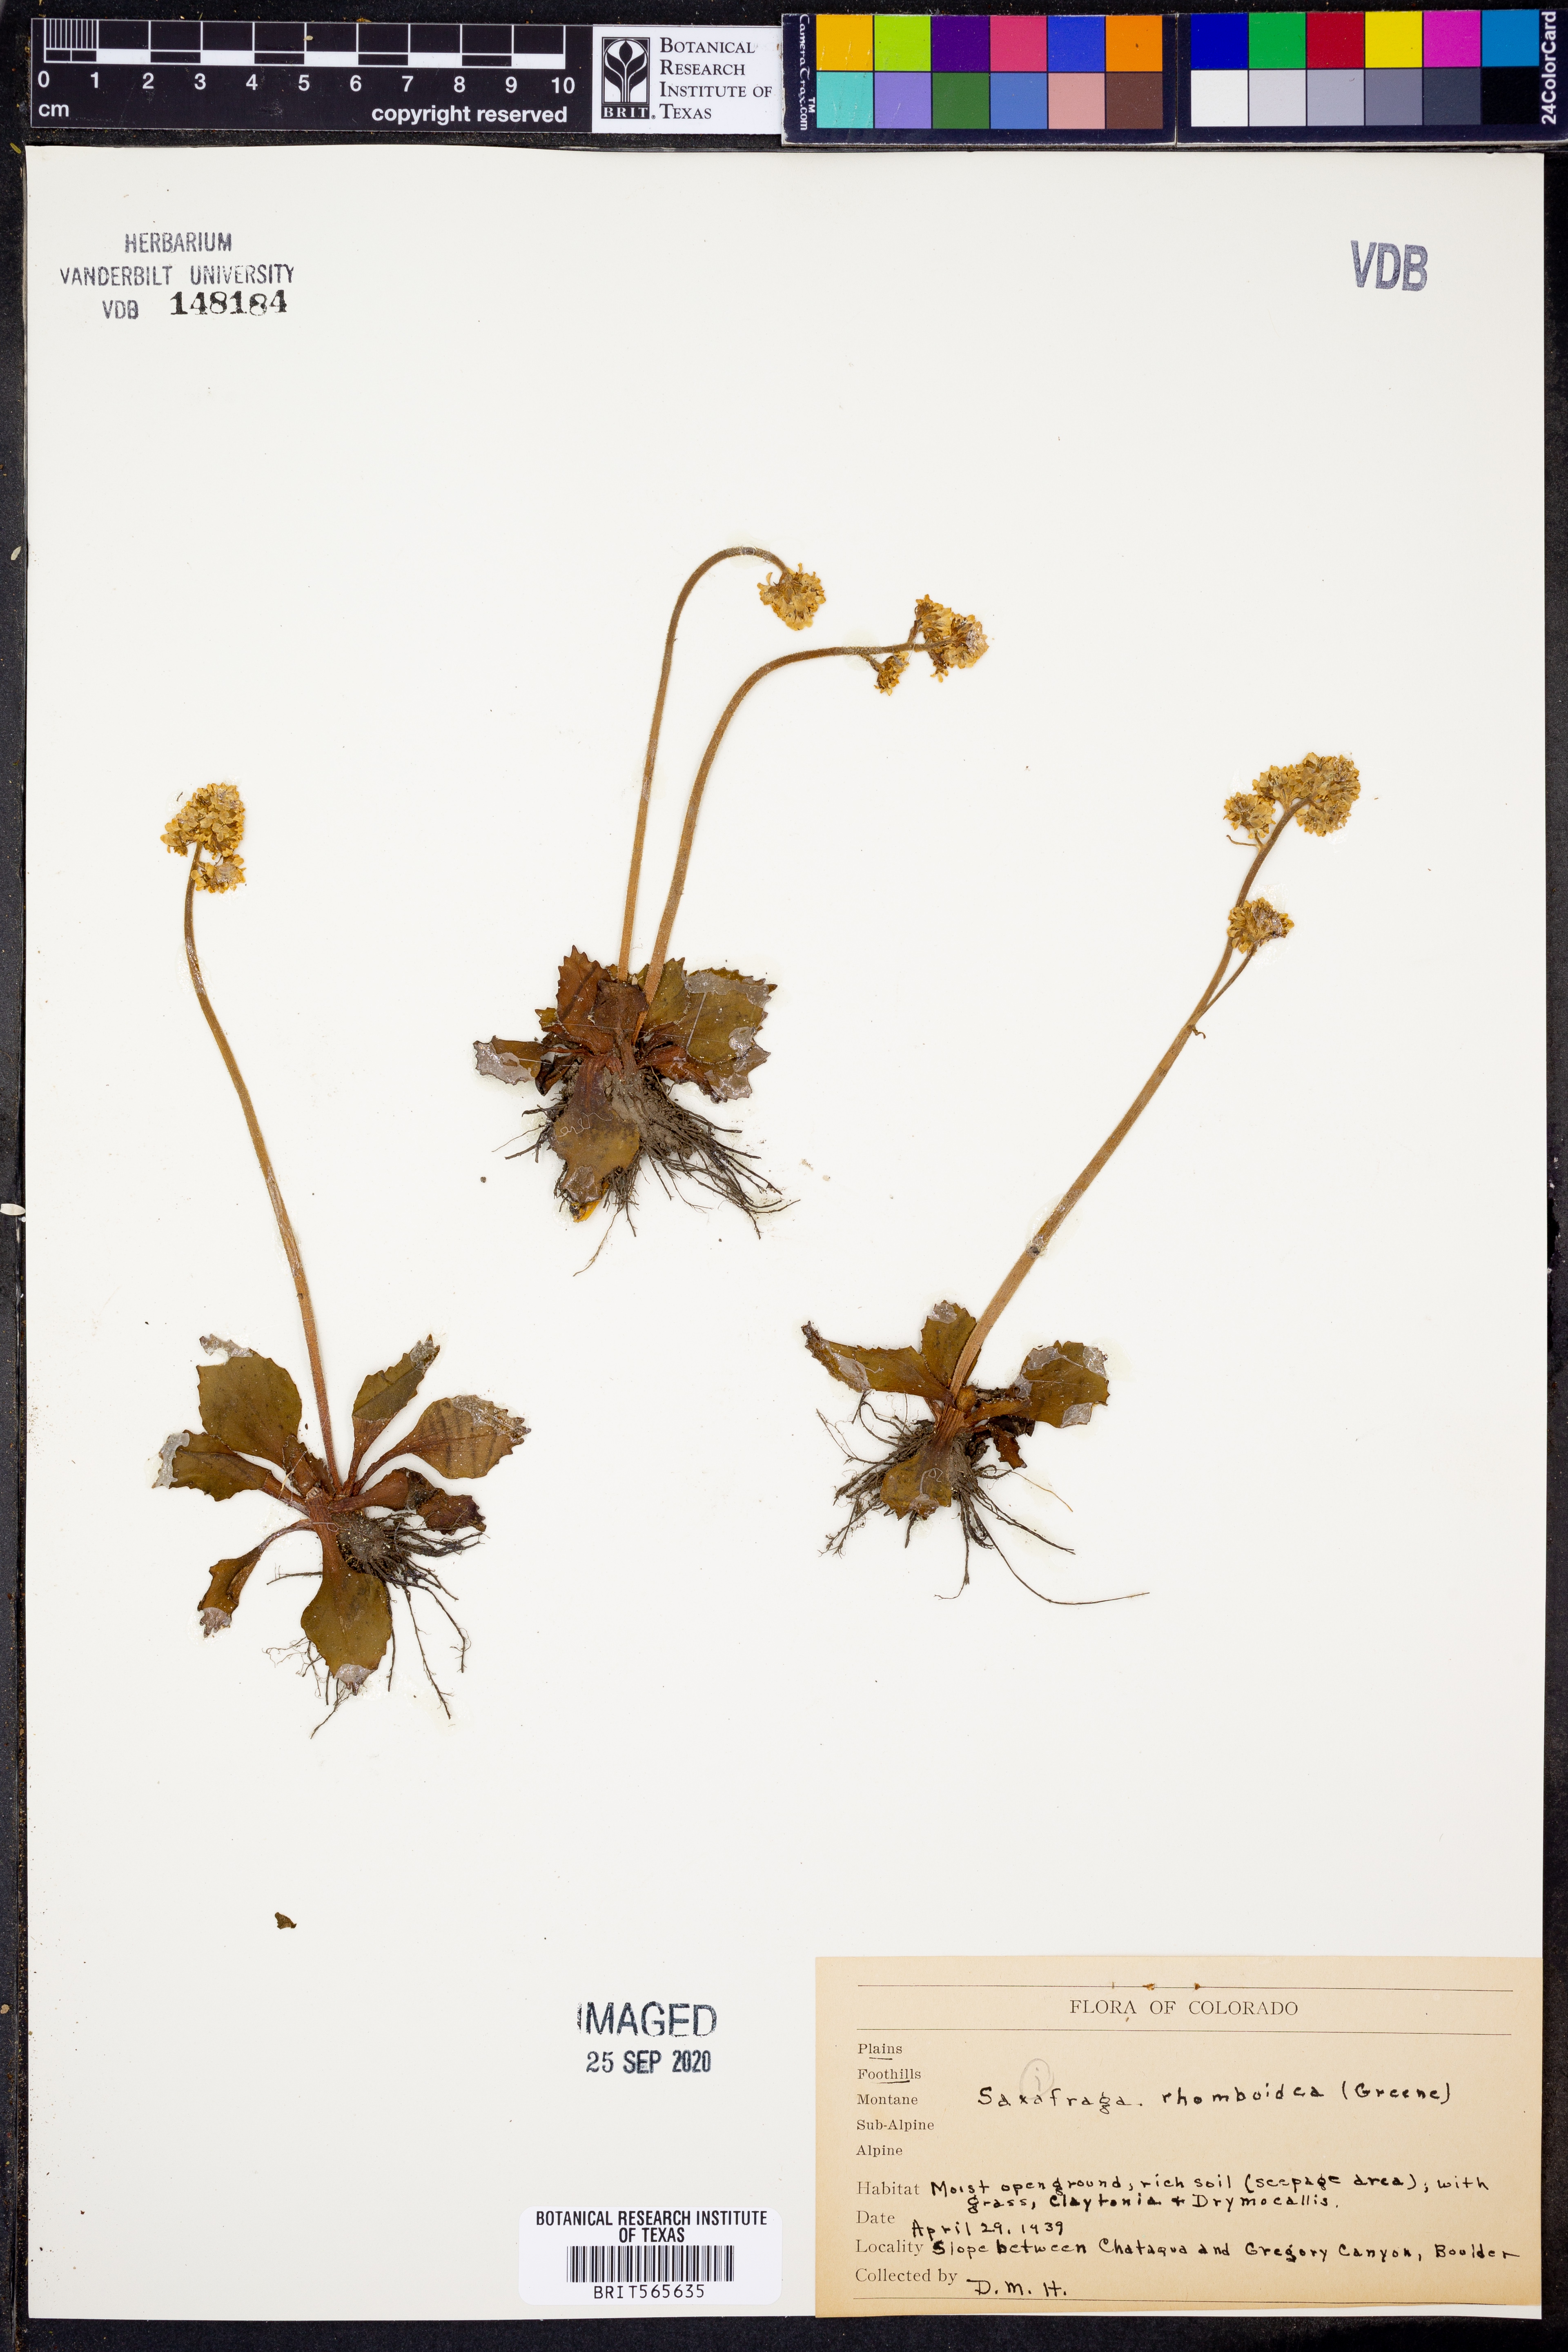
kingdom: Plantae
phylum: Tracheophyta
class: Magnoliopsida
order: Saxifragales
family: Saxifragaceae
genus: Micranthes
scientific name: Micranthes rhomboidea
